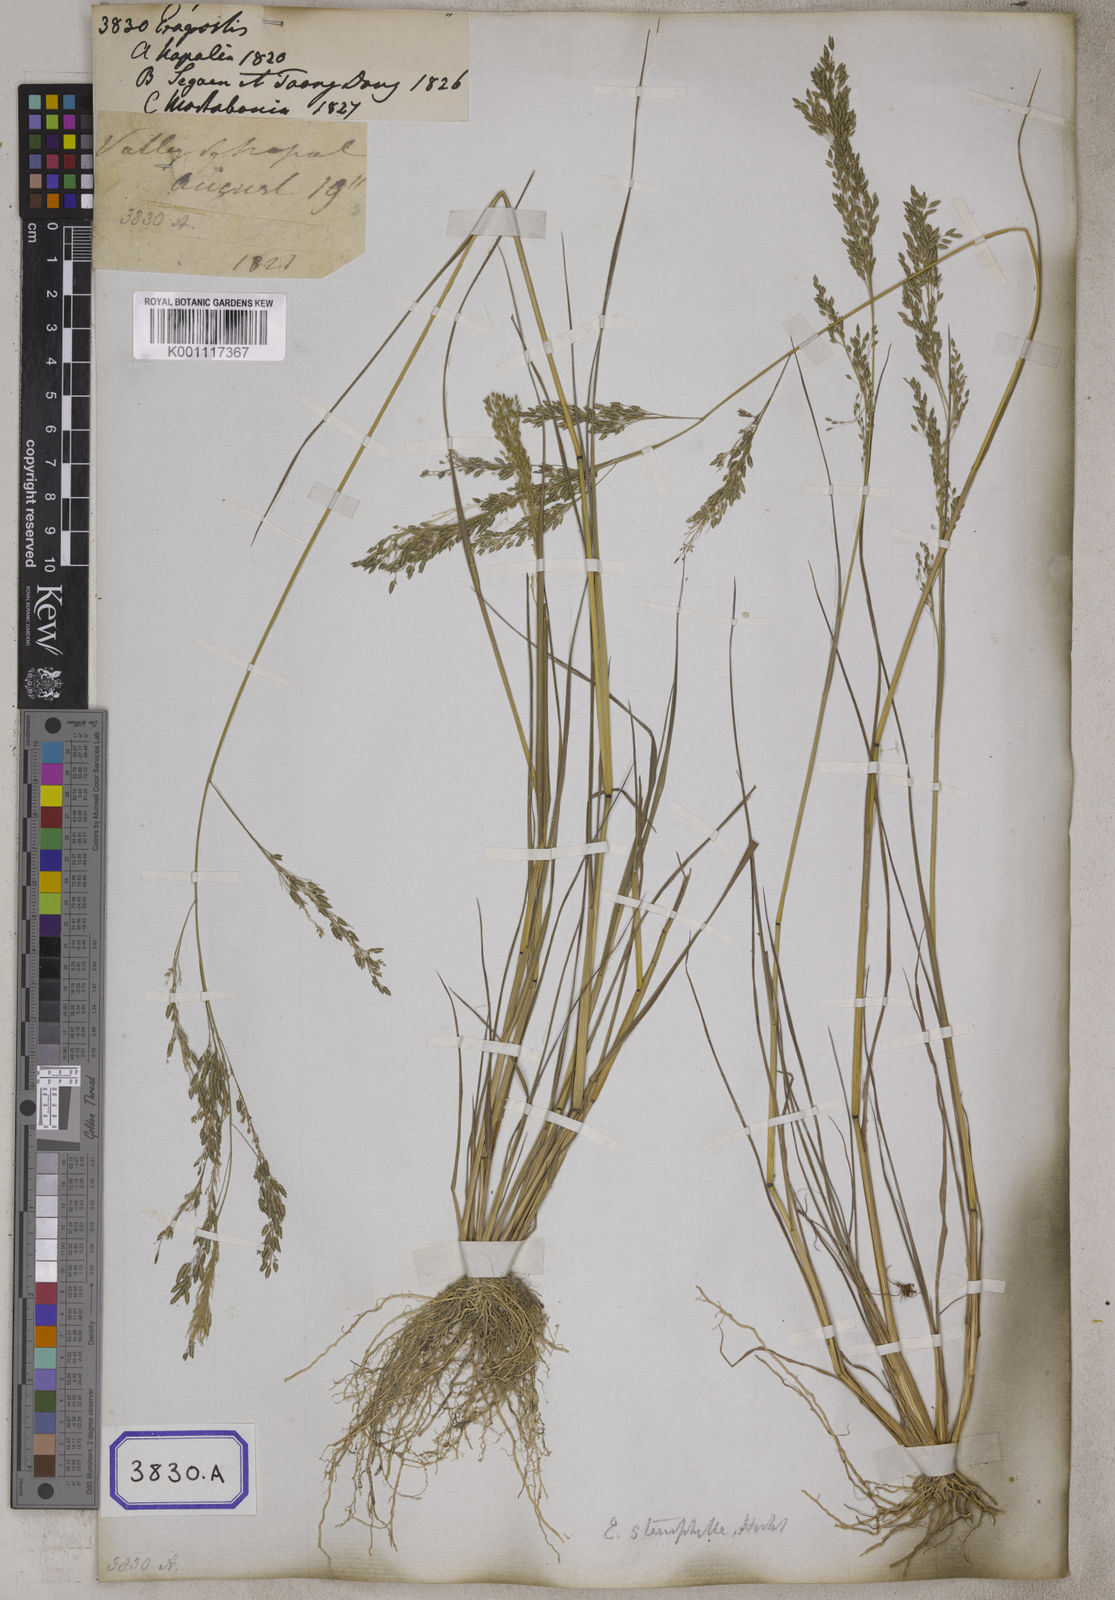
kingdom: Plantae
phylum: Tracheophyta
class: Liliopsida
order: Poales
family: Poaceae
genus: Eragrostis
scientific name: Eragrostis
